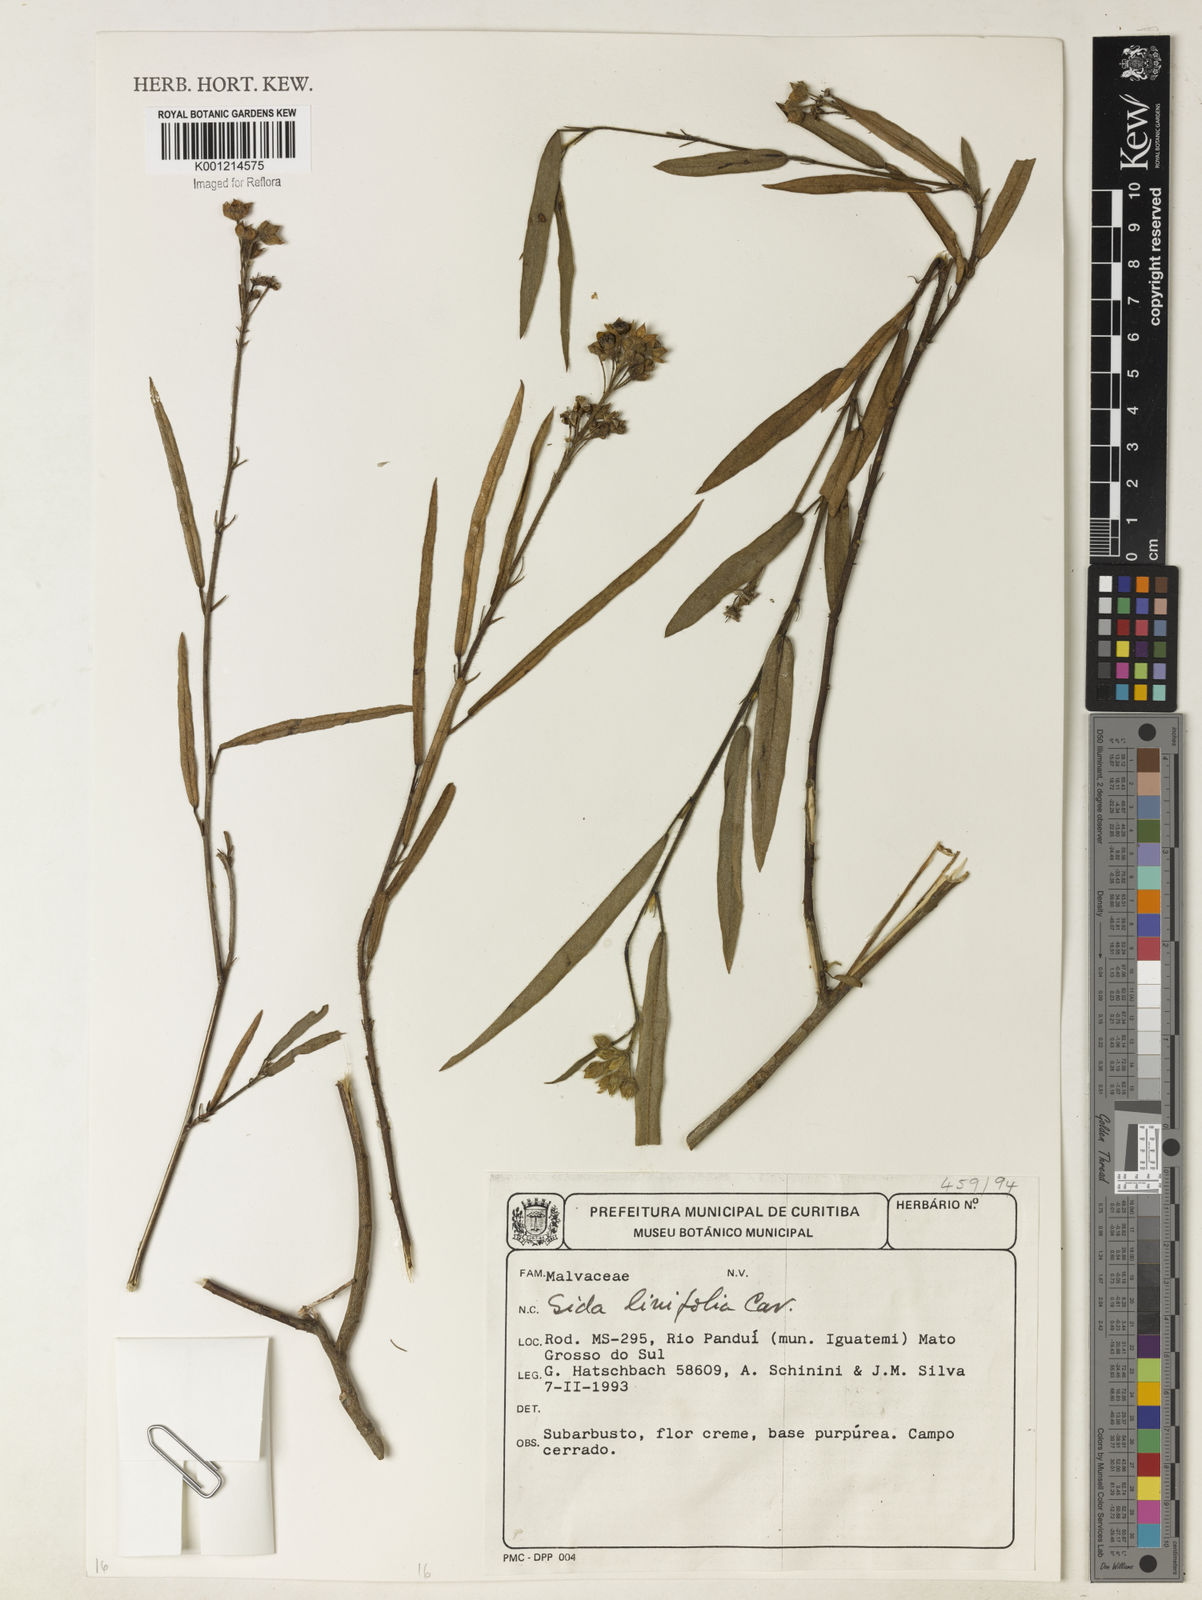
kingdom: Plantae
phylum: Tracheophyta
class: Magnoliopsida
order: Malvales
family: Malvaceae
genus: Sida
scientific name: Sida linifolia
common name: Flaxleaf fanpetals
